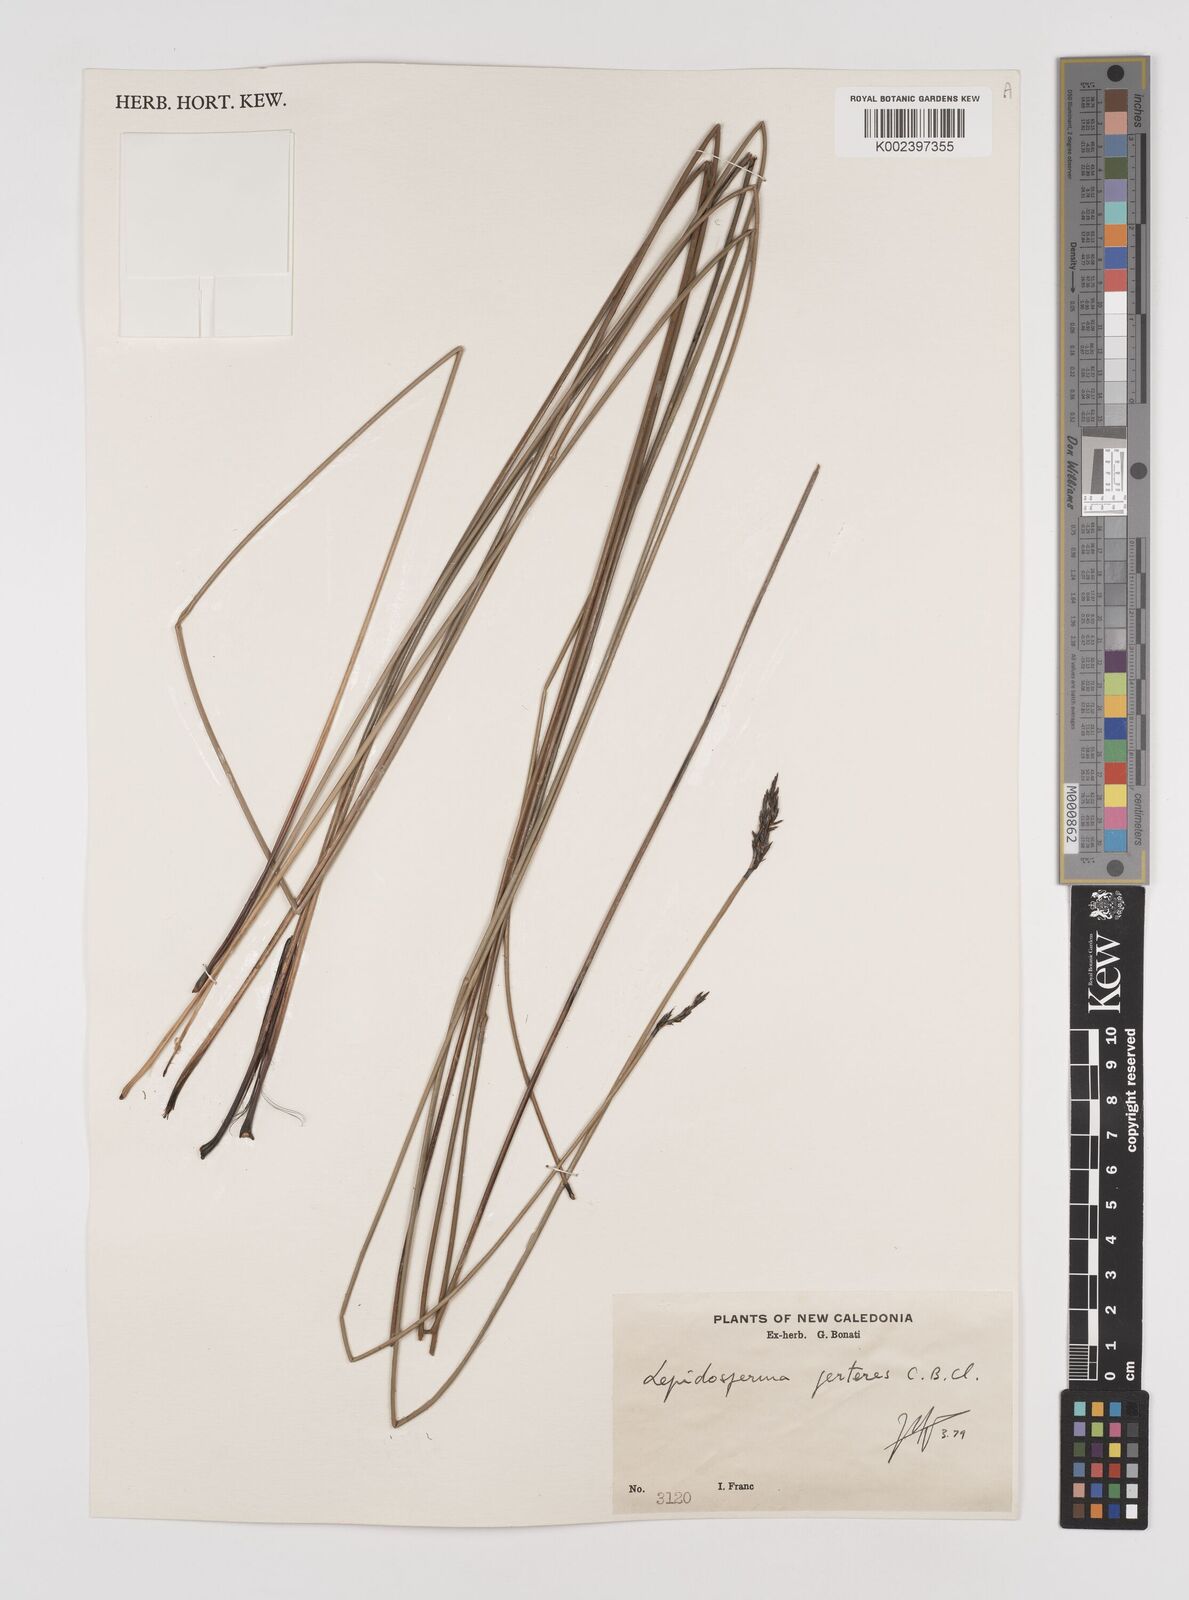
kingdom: Plantae
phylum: Tracheophyta
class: Liliopsida
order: Poales
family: Cyperaceae
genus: Lepidosperma
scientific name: Lepidosperma perteres
